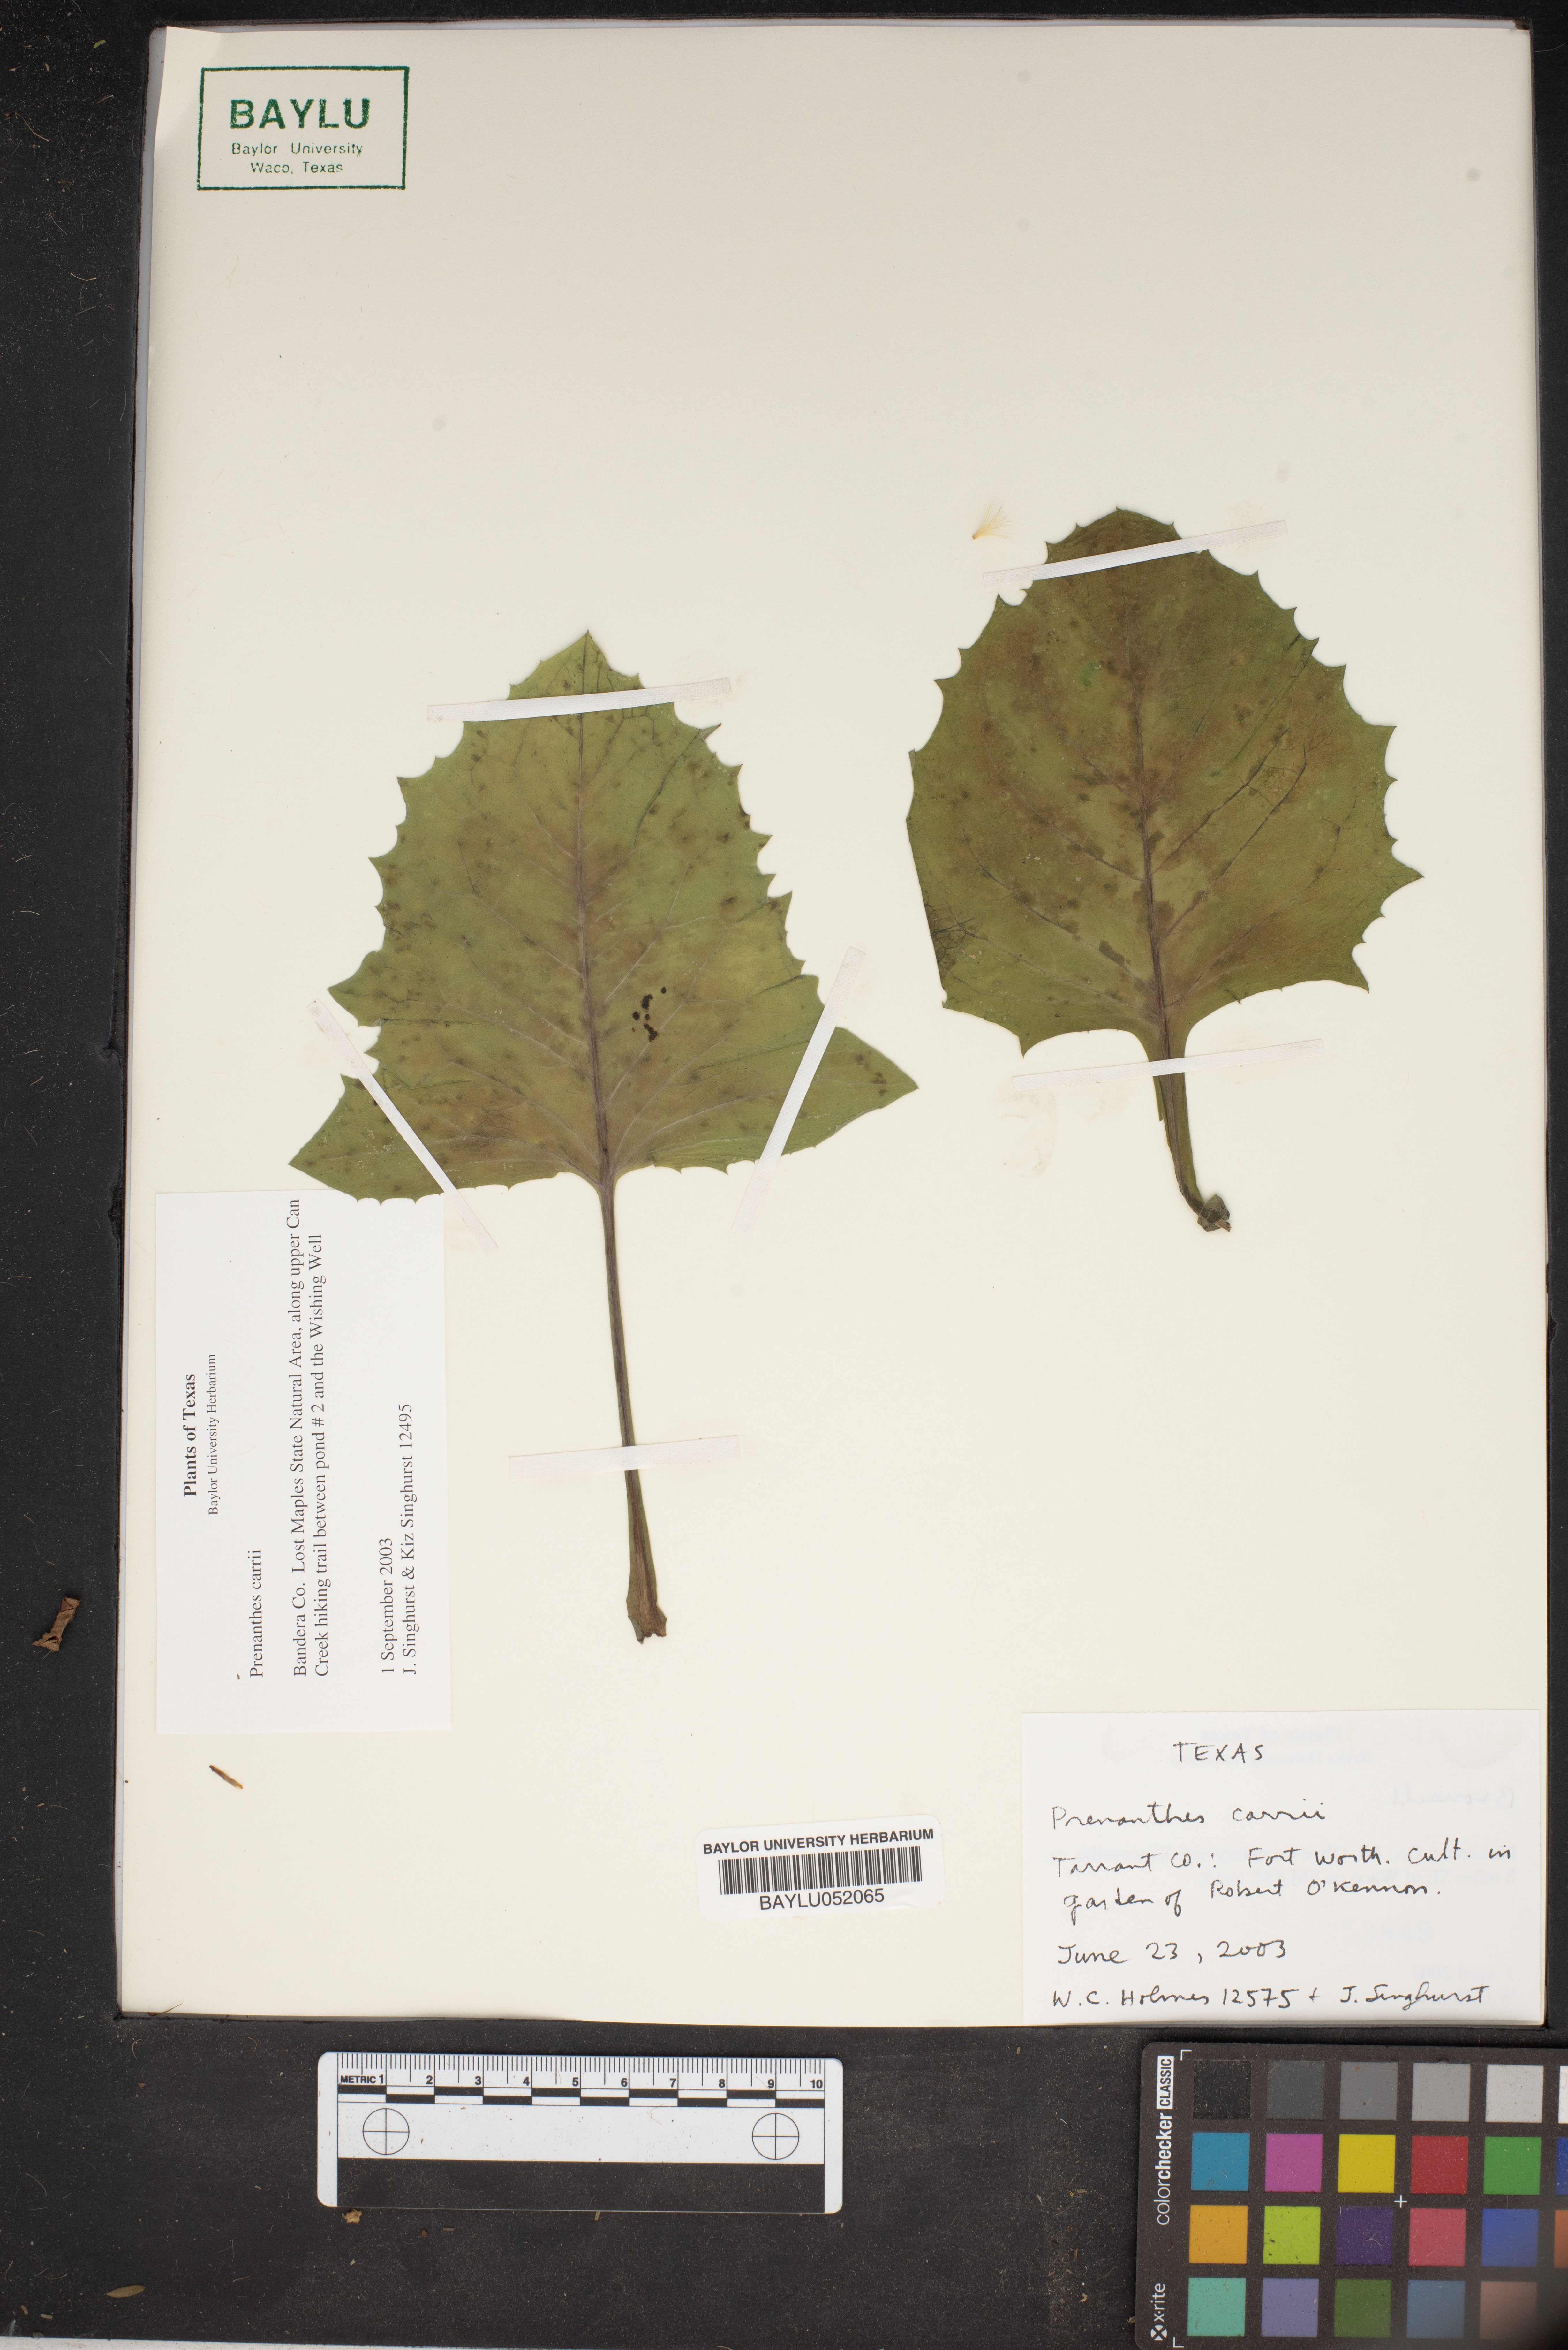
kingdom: Plantae
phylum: Tracheophyta
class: Magnoliopsida
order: Asterales
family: Asteraceae
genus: Nabalus
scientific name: Nabalus carrii
